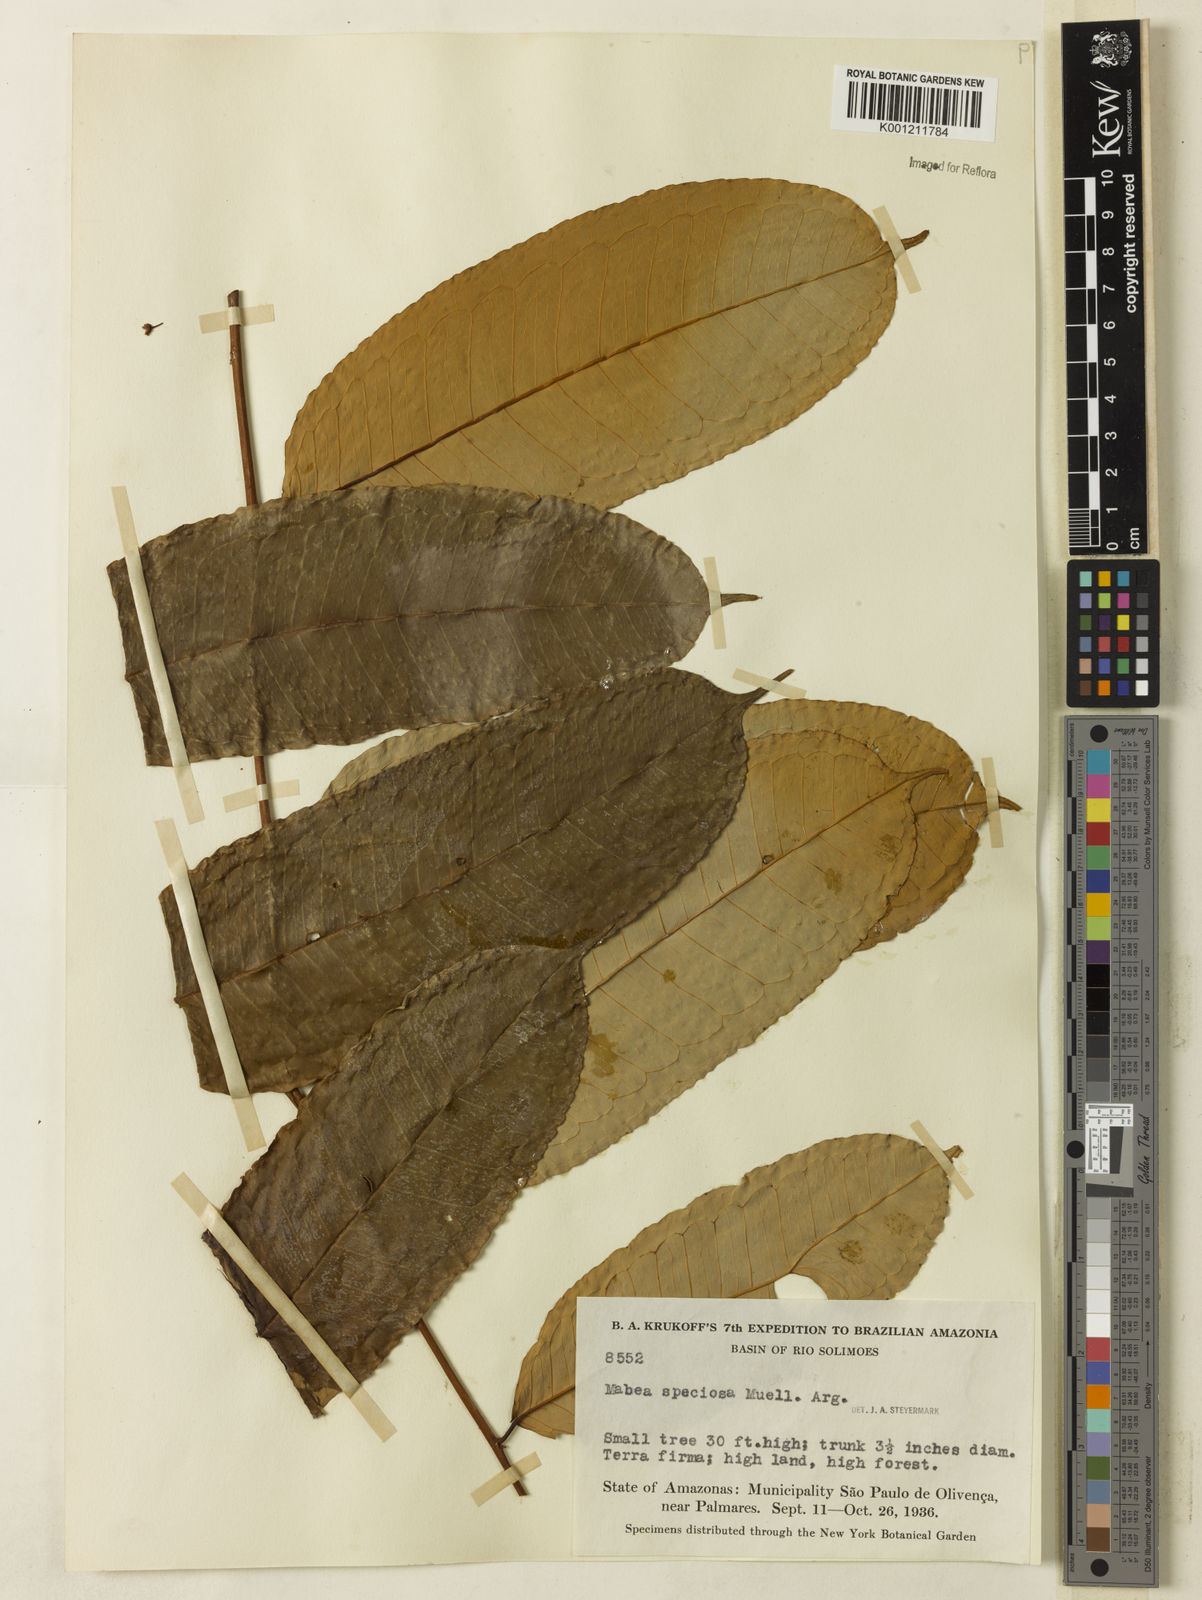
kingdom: Plantae
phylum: Tracheophyta
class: Magnoliopsida
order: Malpighiales
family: Euphorbiaceae
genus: Mabea
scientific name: Mabea
